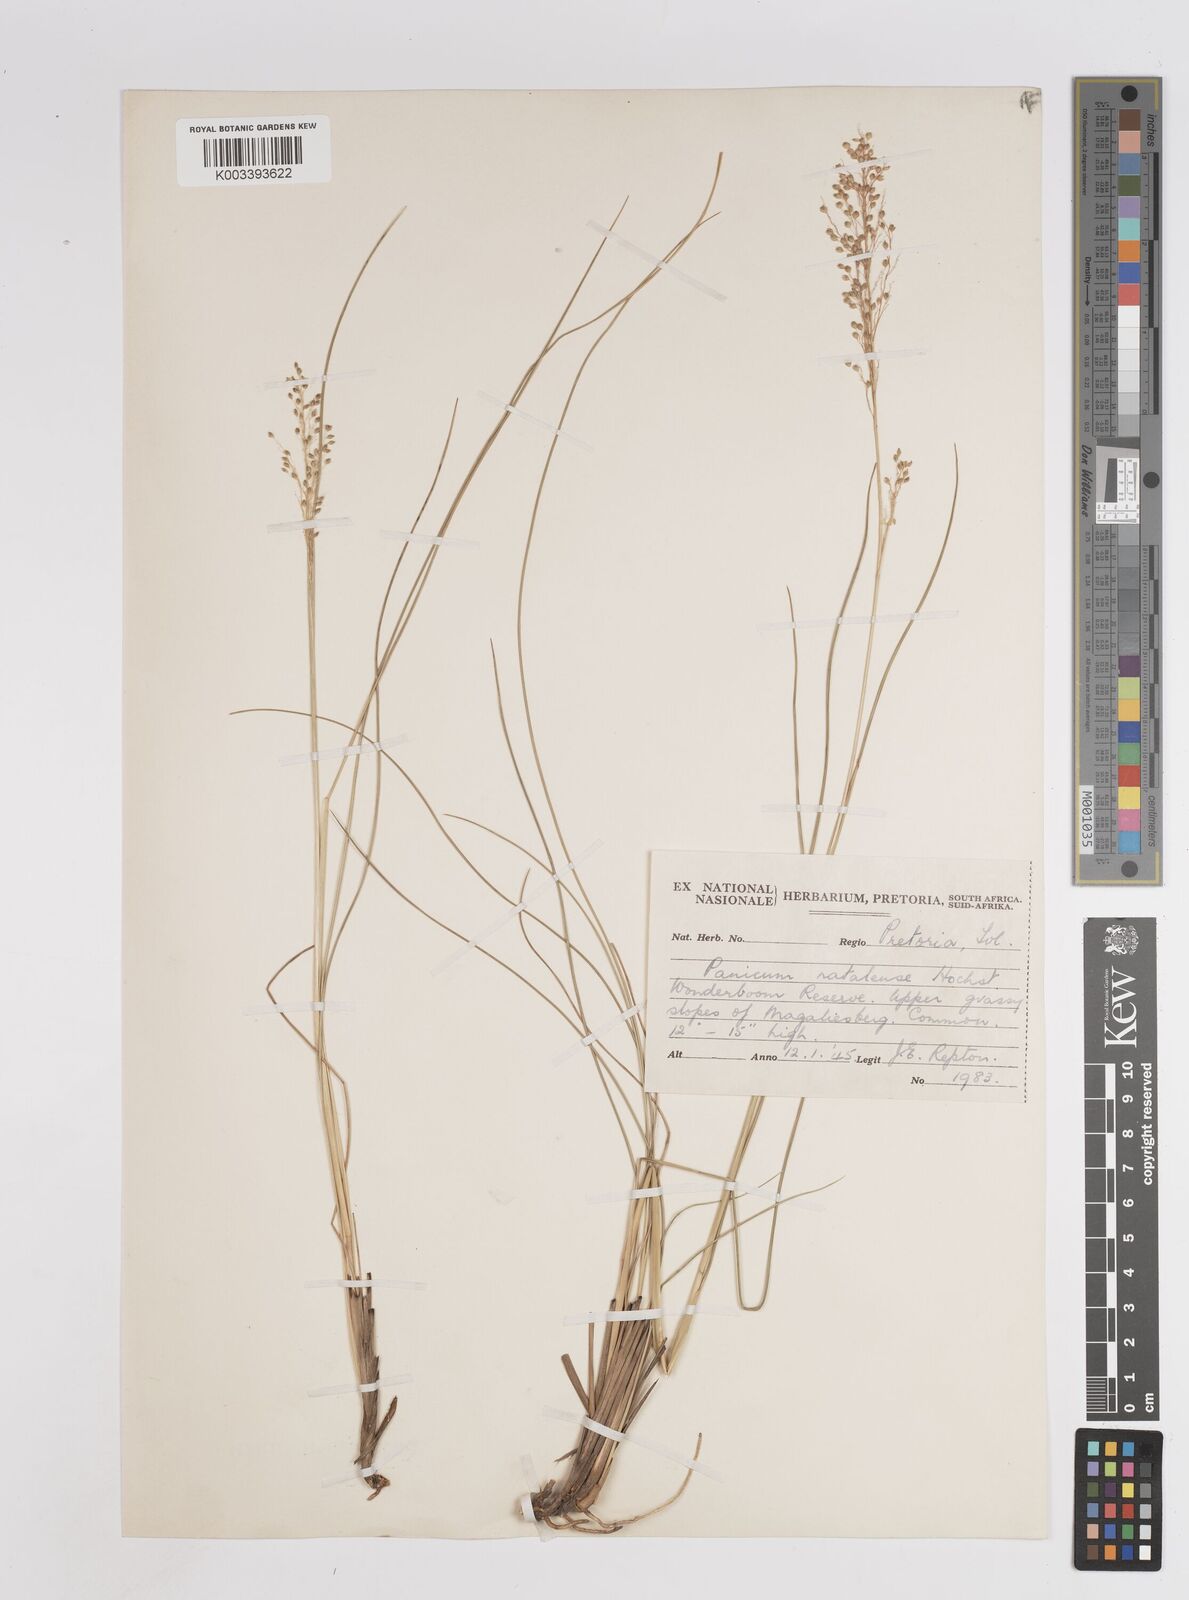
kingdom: Plantae
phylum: Tracheophyta
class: Liliopsida
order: Poales
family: Poaceae
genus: Trichanthecium
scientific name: Trichanthecium natalense
